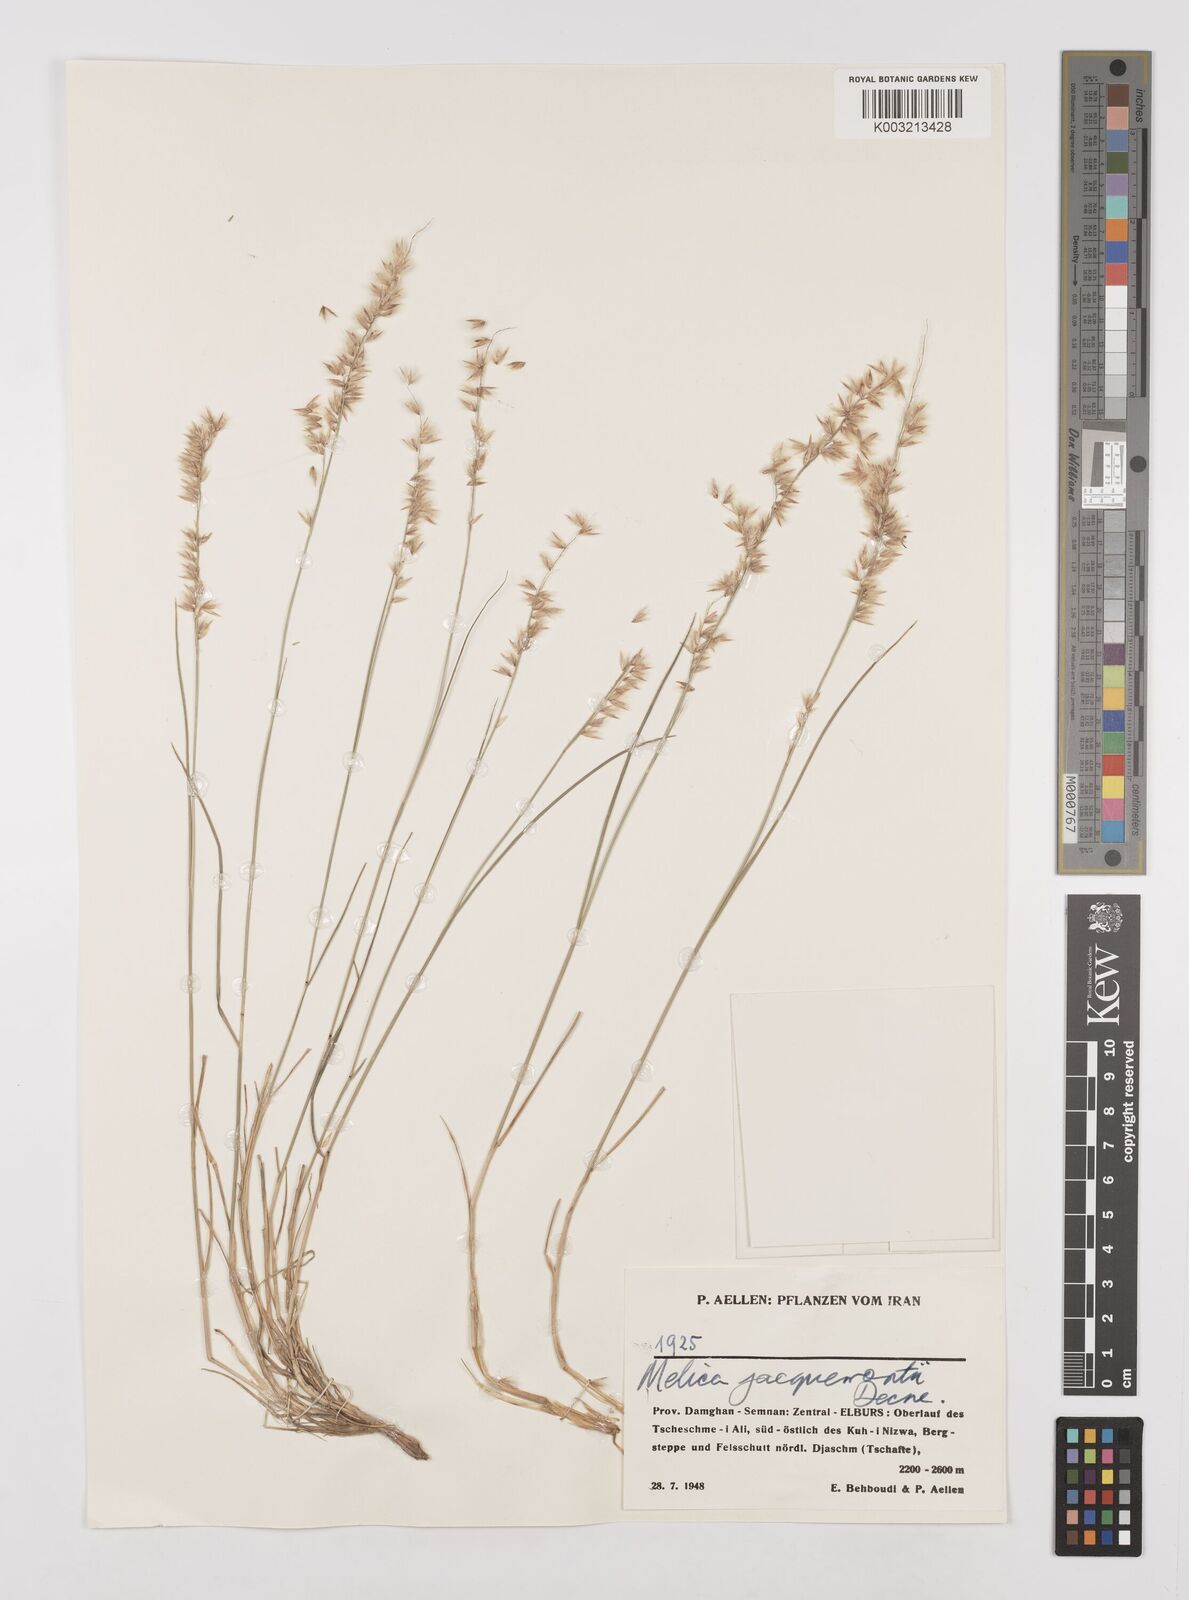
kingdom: Plantae
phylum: Tracheophyta
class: Liliopsida
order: Poales
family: Poaceae
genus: Melica
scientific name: Melica persica
